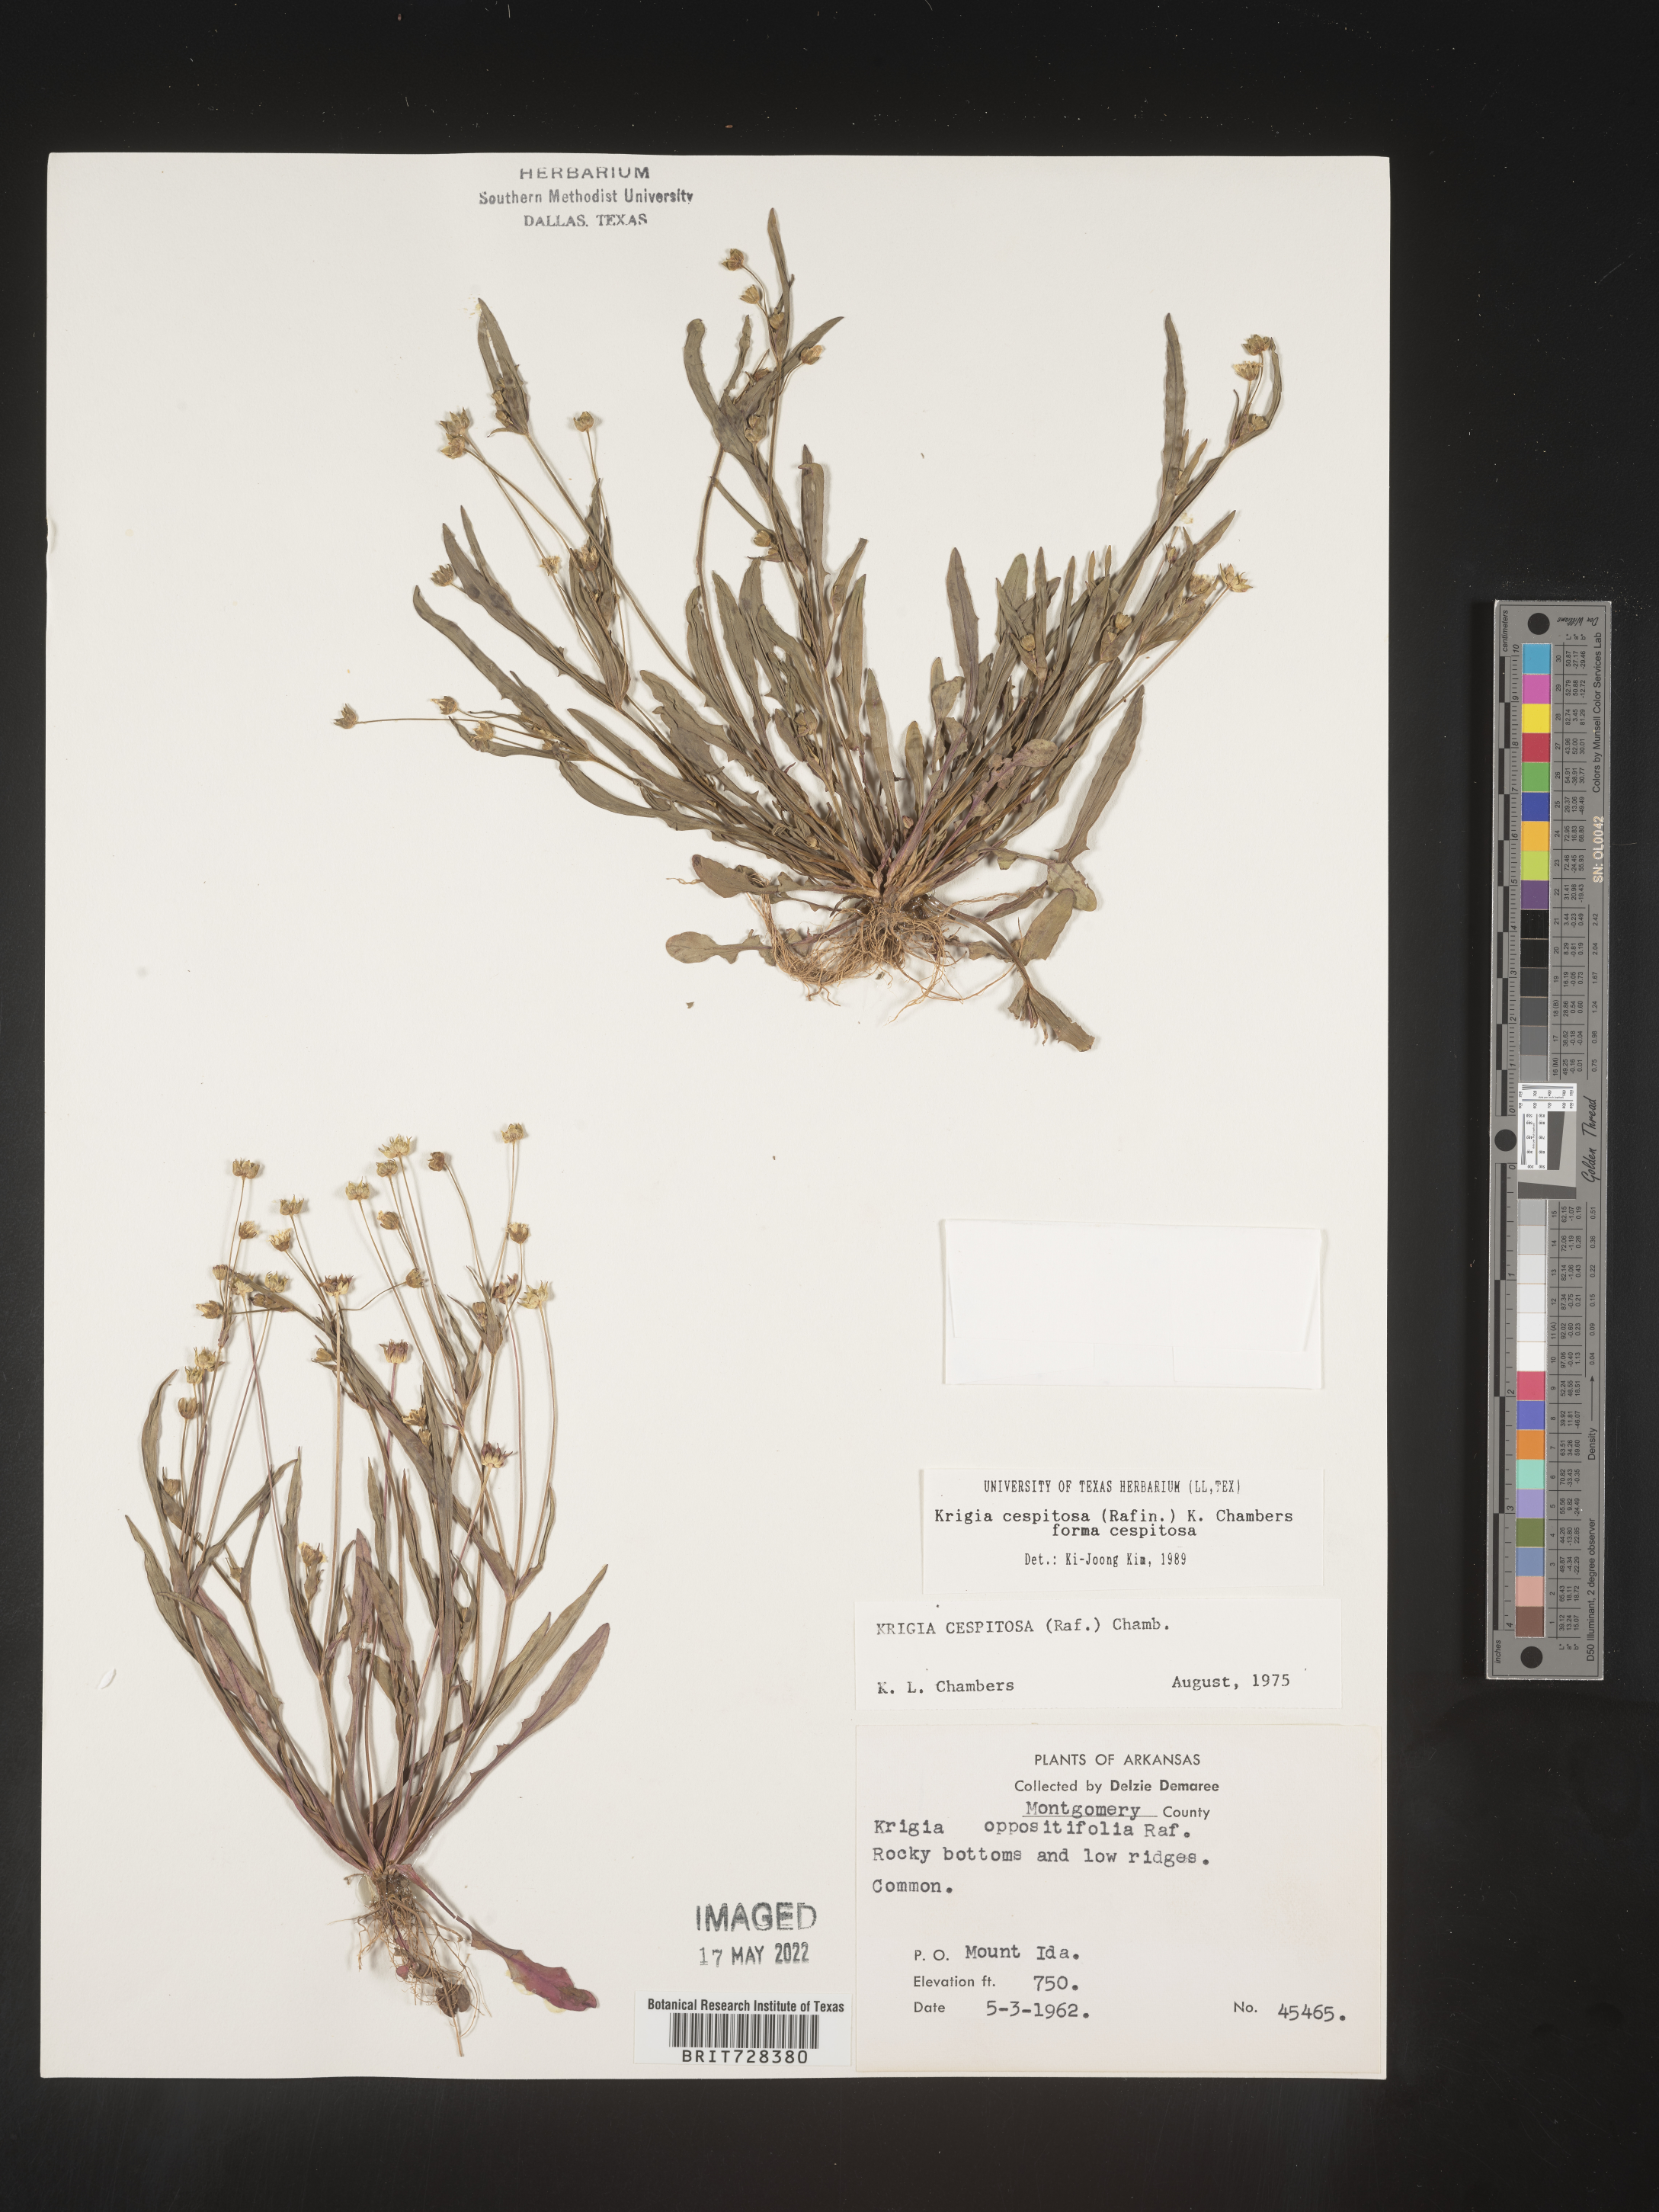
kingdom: Plantae
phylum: Tracheophyta
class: Magnoliopsida
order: Asterales
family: Asteraceae
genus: Krigia
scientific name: Krigia caespitosa
